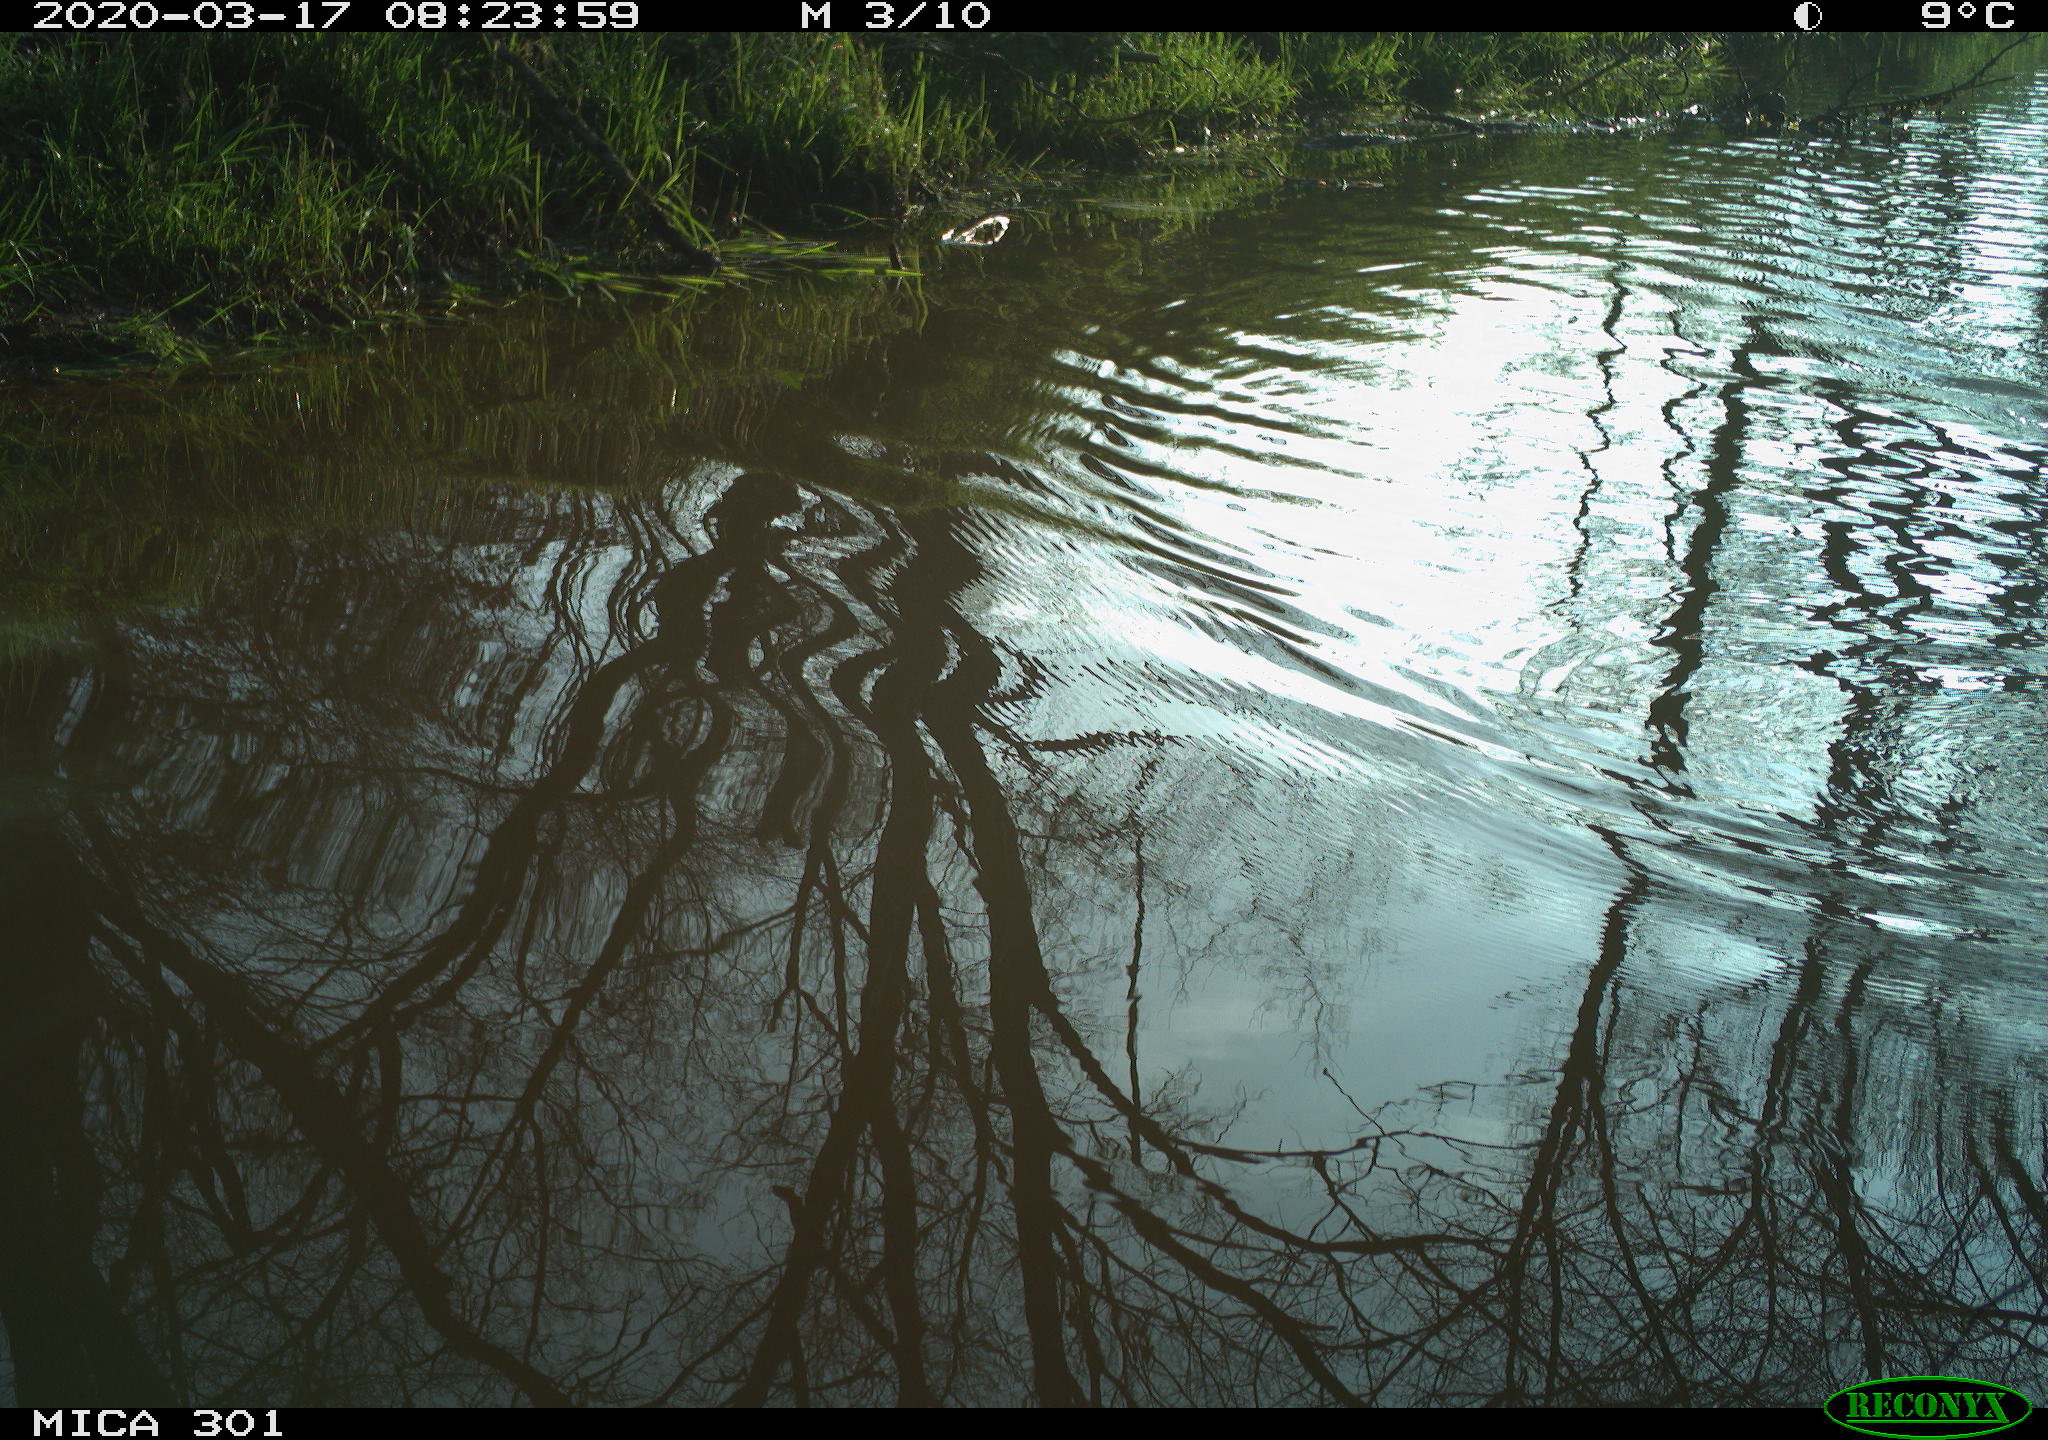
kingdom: Animalia
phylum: Chordata
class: Aves
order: Anseriformes
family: Anatidae
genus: Aix
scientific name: Aix galericulata
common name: Mandarin duck
